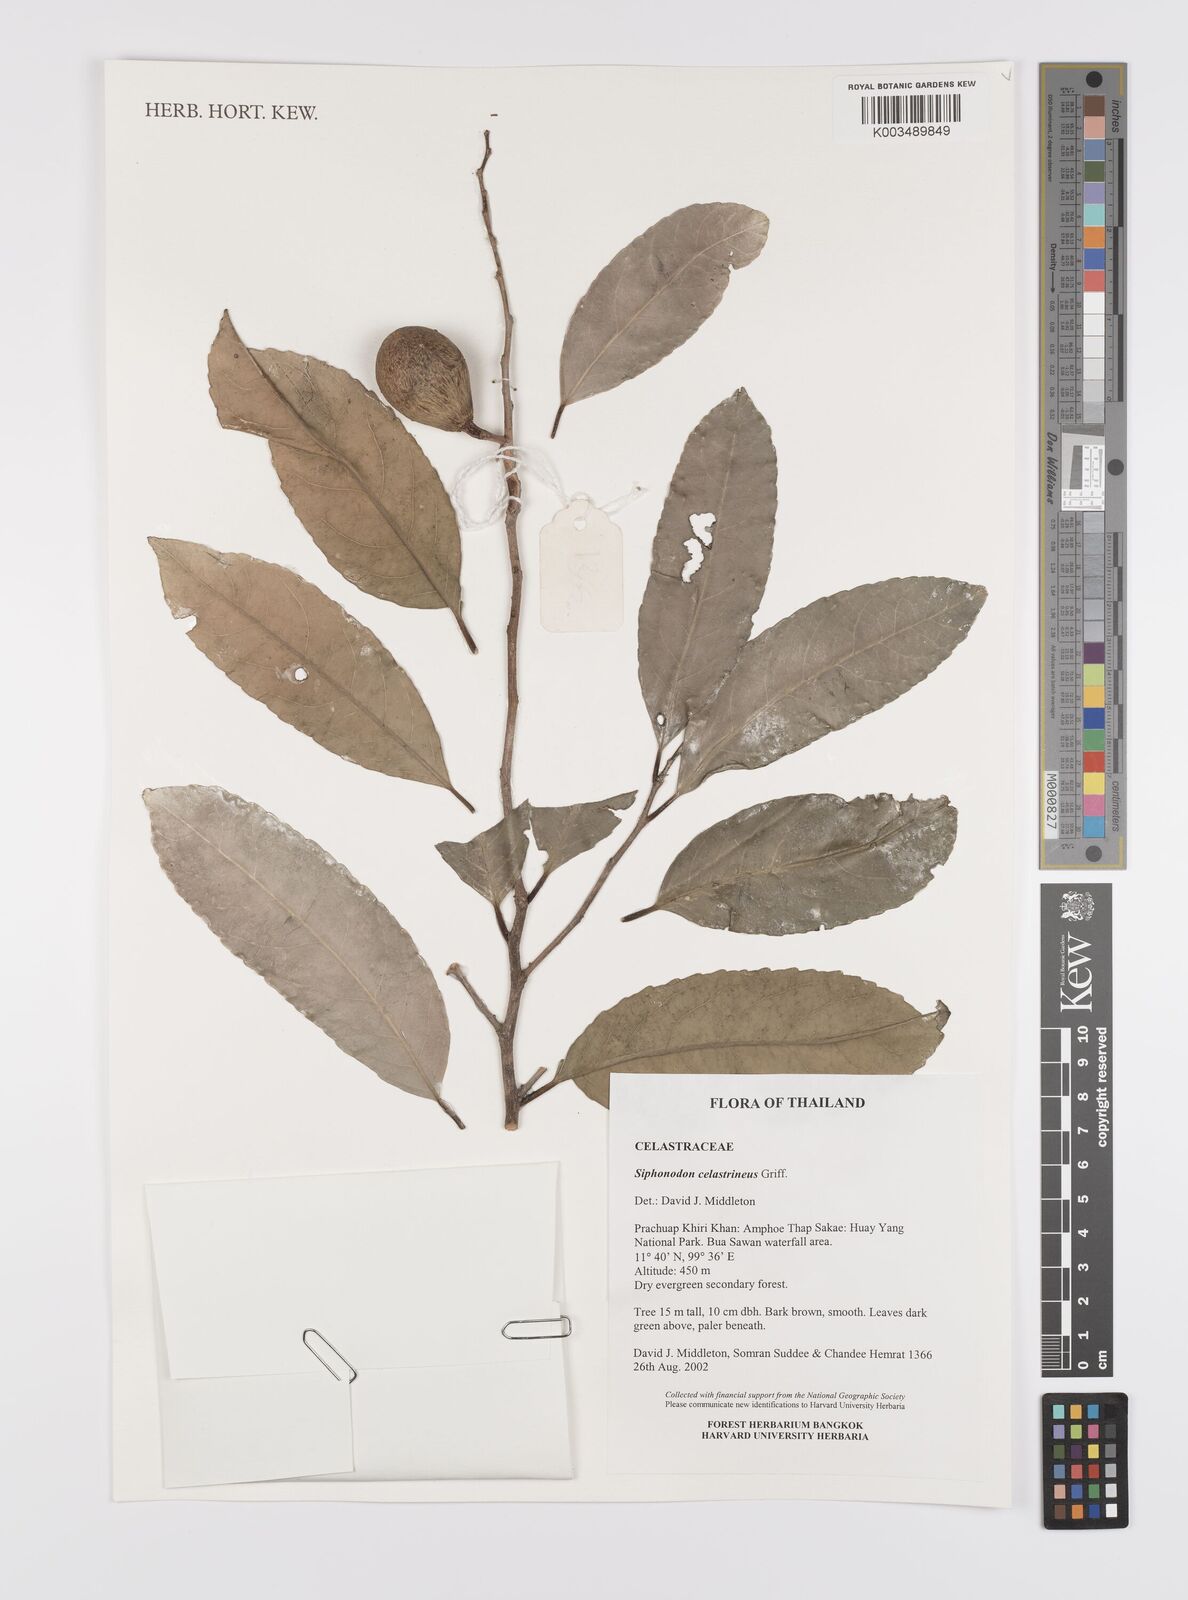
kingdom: Plantae
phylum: Tracheophyta
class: Magnoliopsida
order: Celastrales
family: Celastraceae
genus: Siphonodon
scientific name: Siphonodon celastrineus
